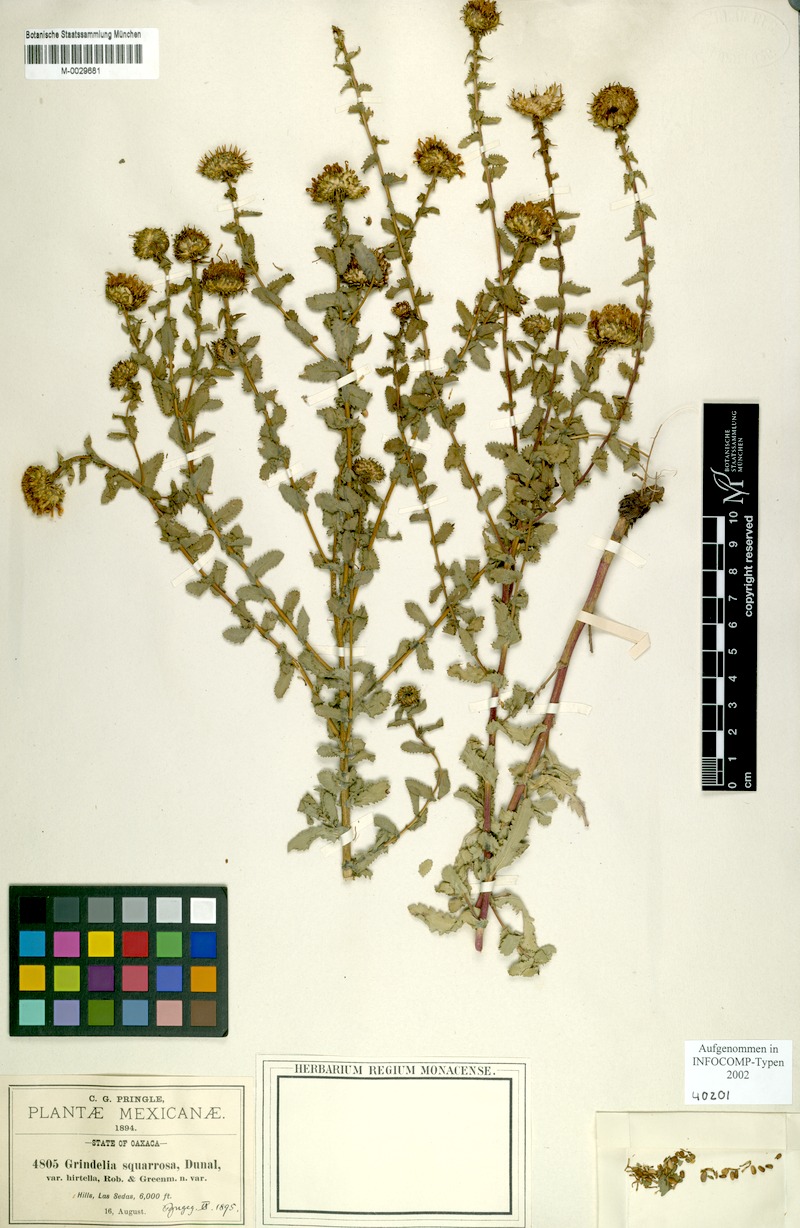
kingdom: Plantae
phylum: Tracheophyta
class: Magnoliopsida
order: Asterales
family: Asteraceae
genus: Grindelia
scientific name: Grindelia squarrosa
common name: Curly-cup gumweed
